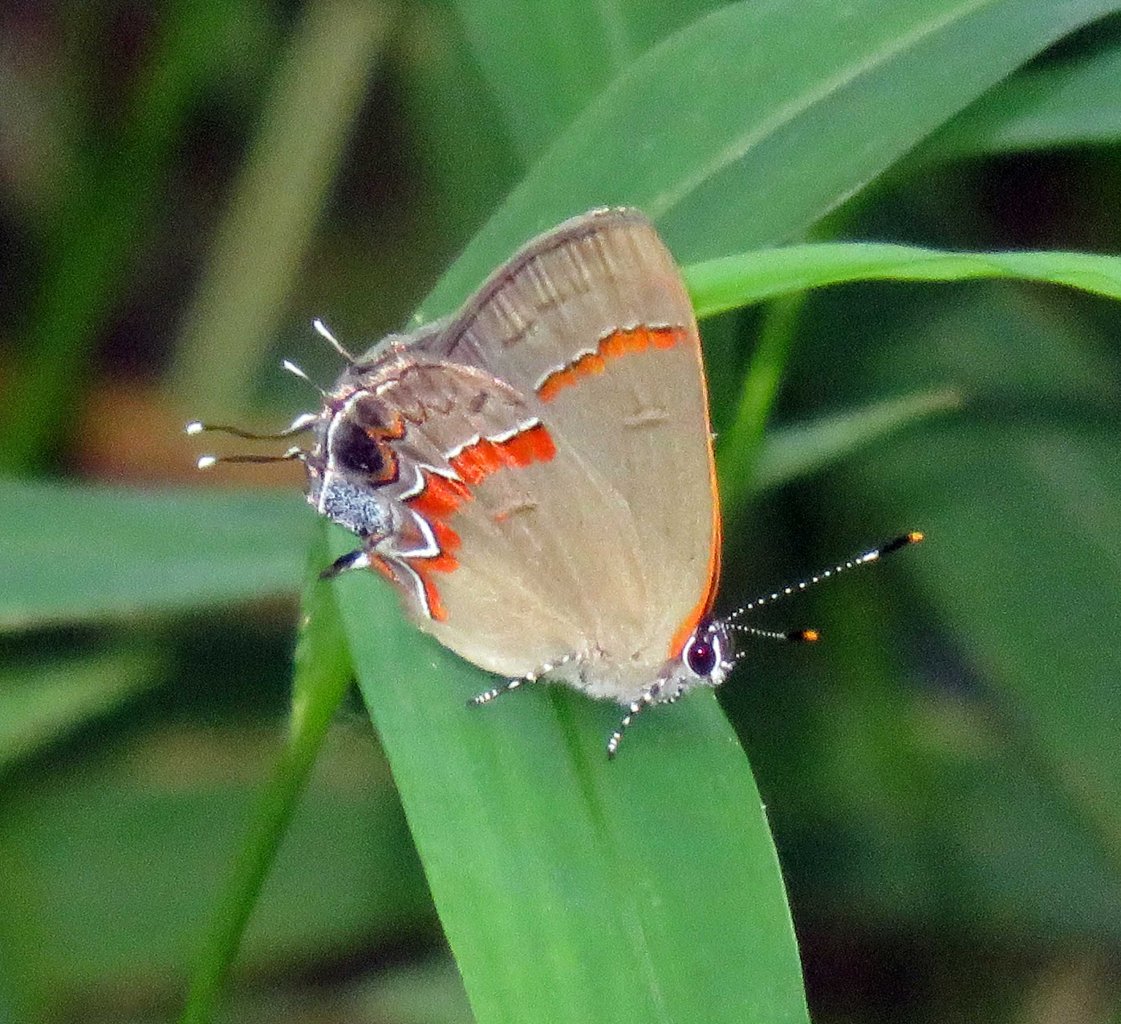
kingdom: Animalia
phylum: Arthropoda
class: Insecta
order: Lepidoptera
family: Lycaenidae
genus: Calycopis
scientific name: Calycopis cecrops
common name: Red-banded Hairstreak
